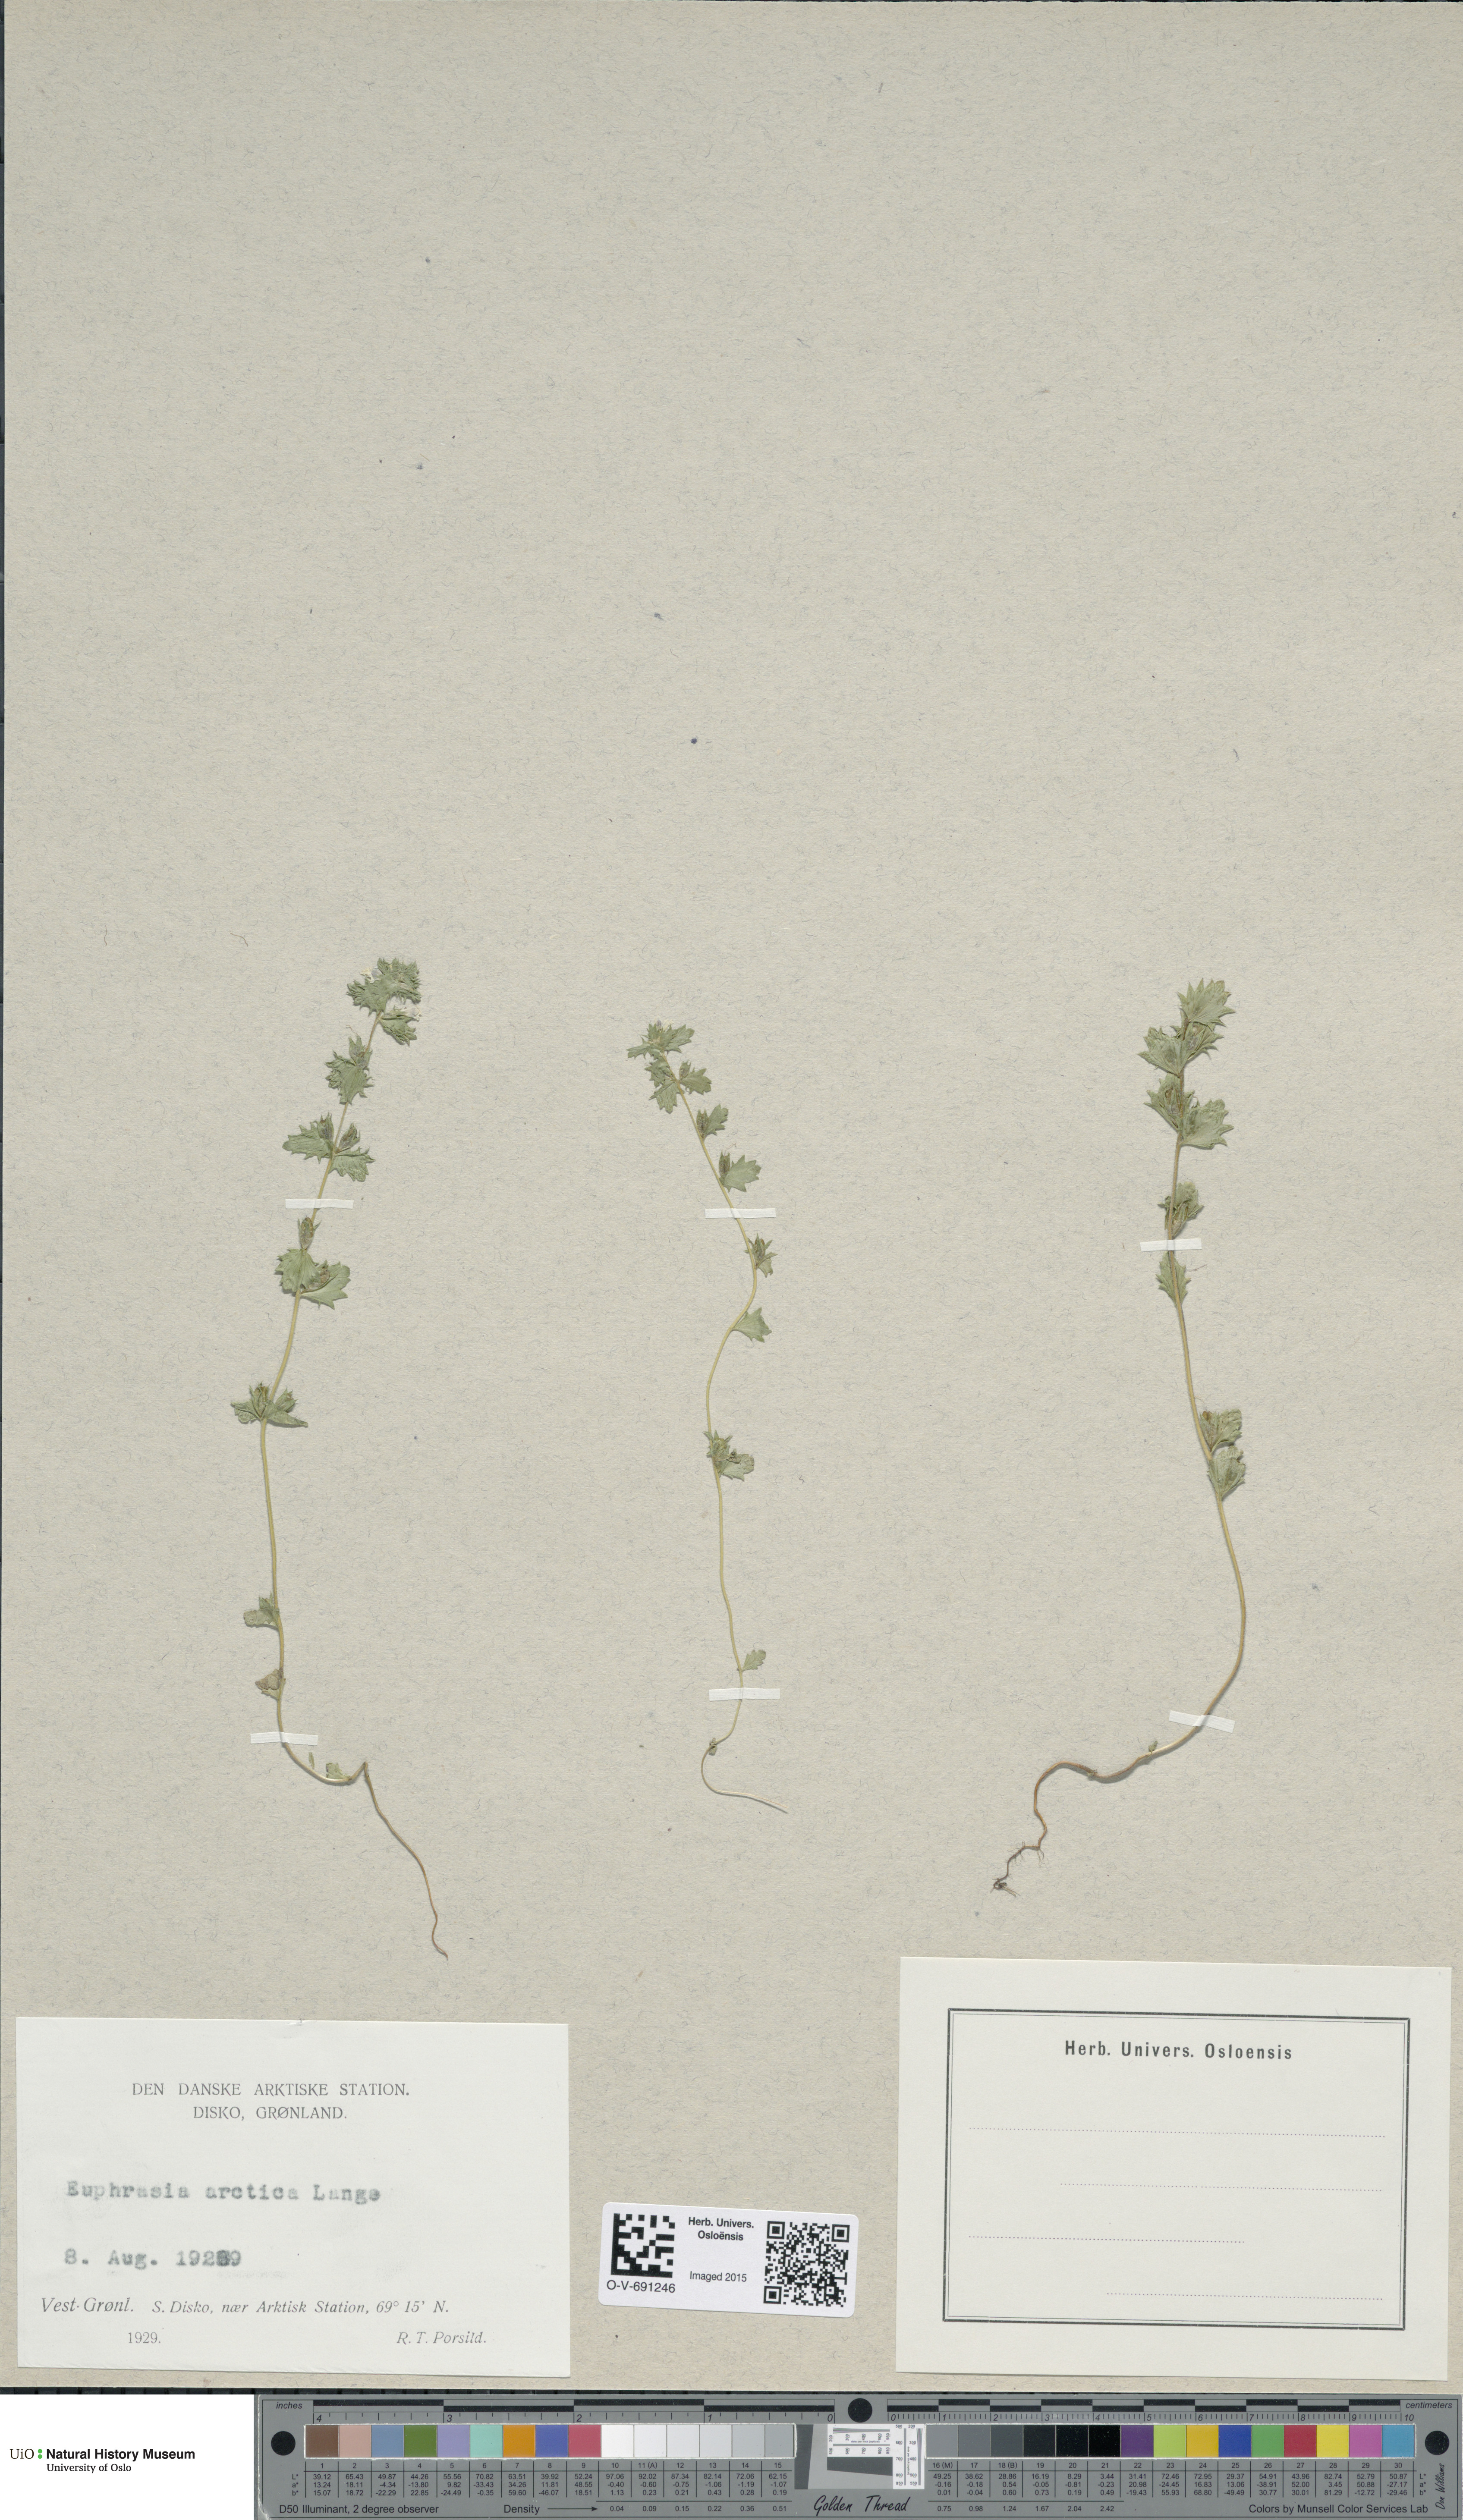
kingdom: Plantae
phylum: Tracheophyta
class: Magnoliopsida
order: Lamiales
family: Orobanchaceae
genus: Euphrasia
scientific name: Euphrasia wettsteinii
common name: Wettstein's eyebright
